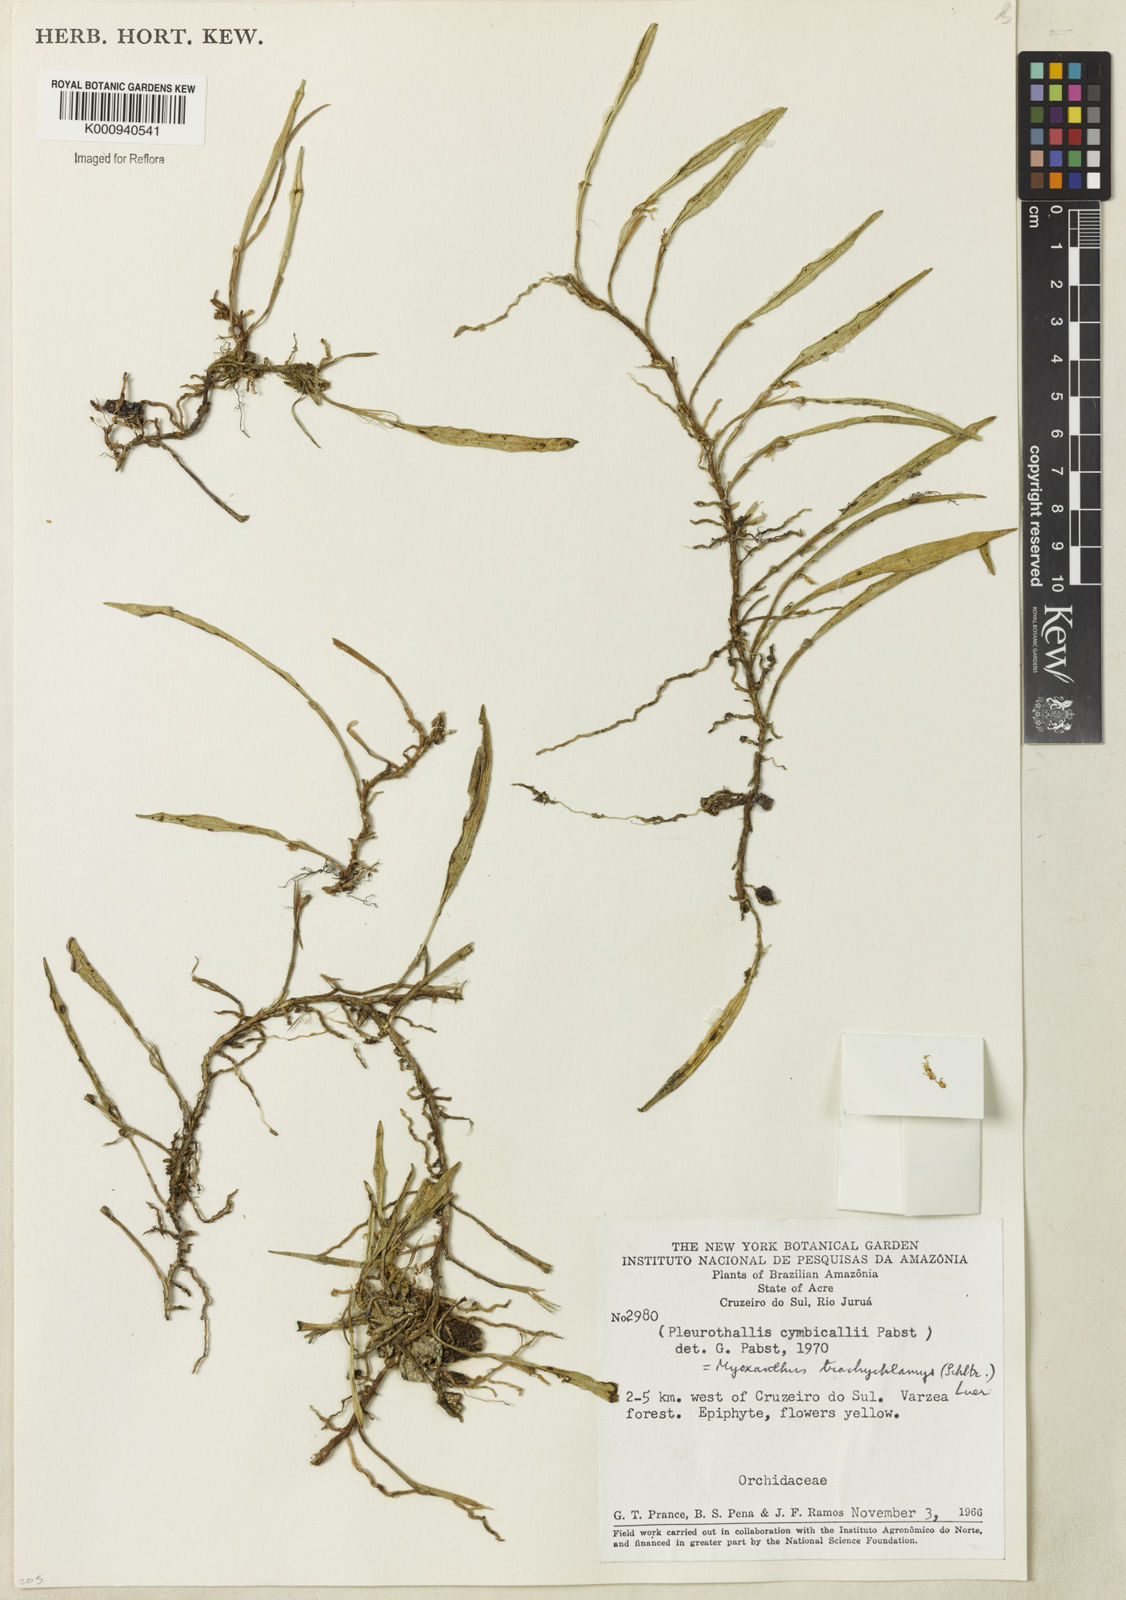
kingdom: Plantae
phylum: Tracheophyta
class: Liliopsida
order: Asparagales
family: Orchidaceae
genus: Myoxanthus
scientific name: Myoxanthus trachychlamys
